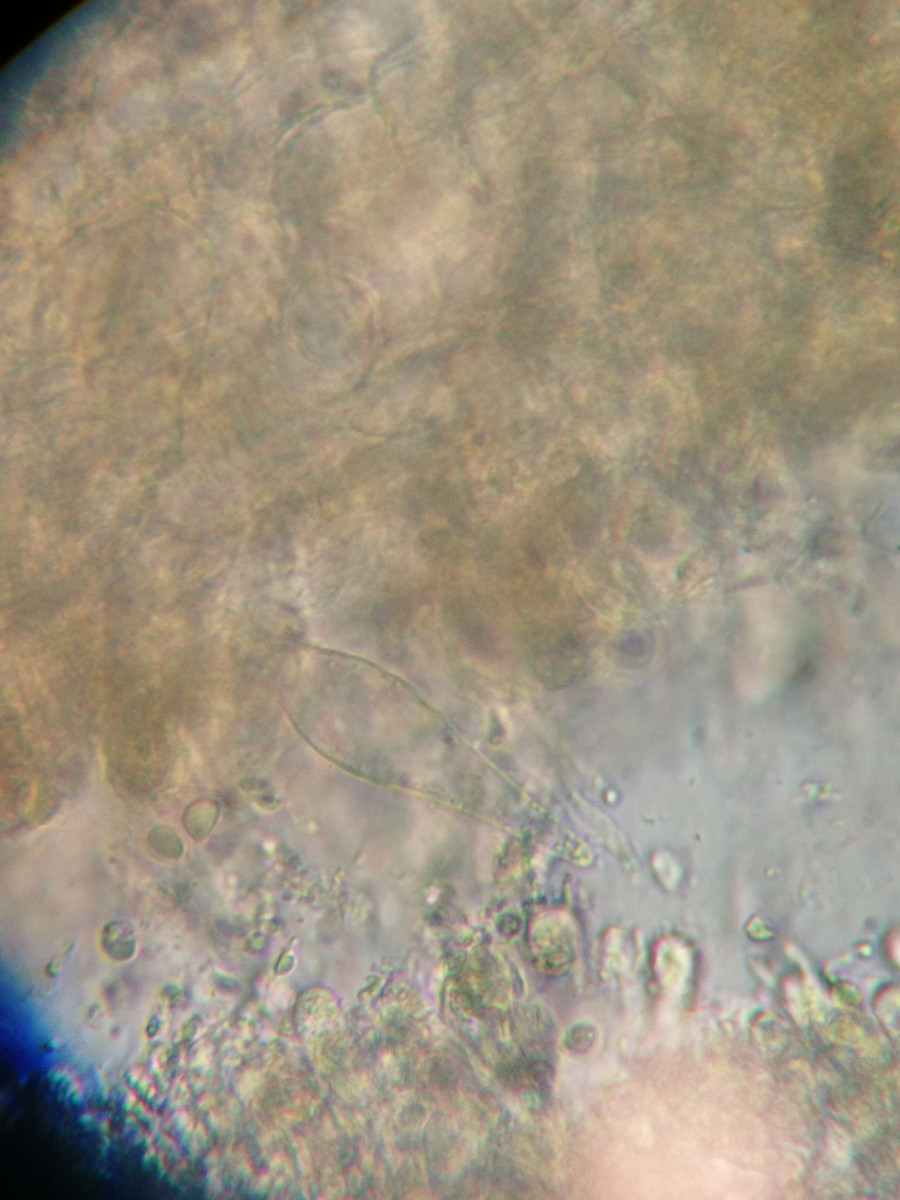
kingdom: Fungi
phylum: Basidiomycota
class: Agaricomycetes
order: Agaricales
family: Mycenaceae
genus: Mycena
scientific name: Mycena
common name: huesvamp
